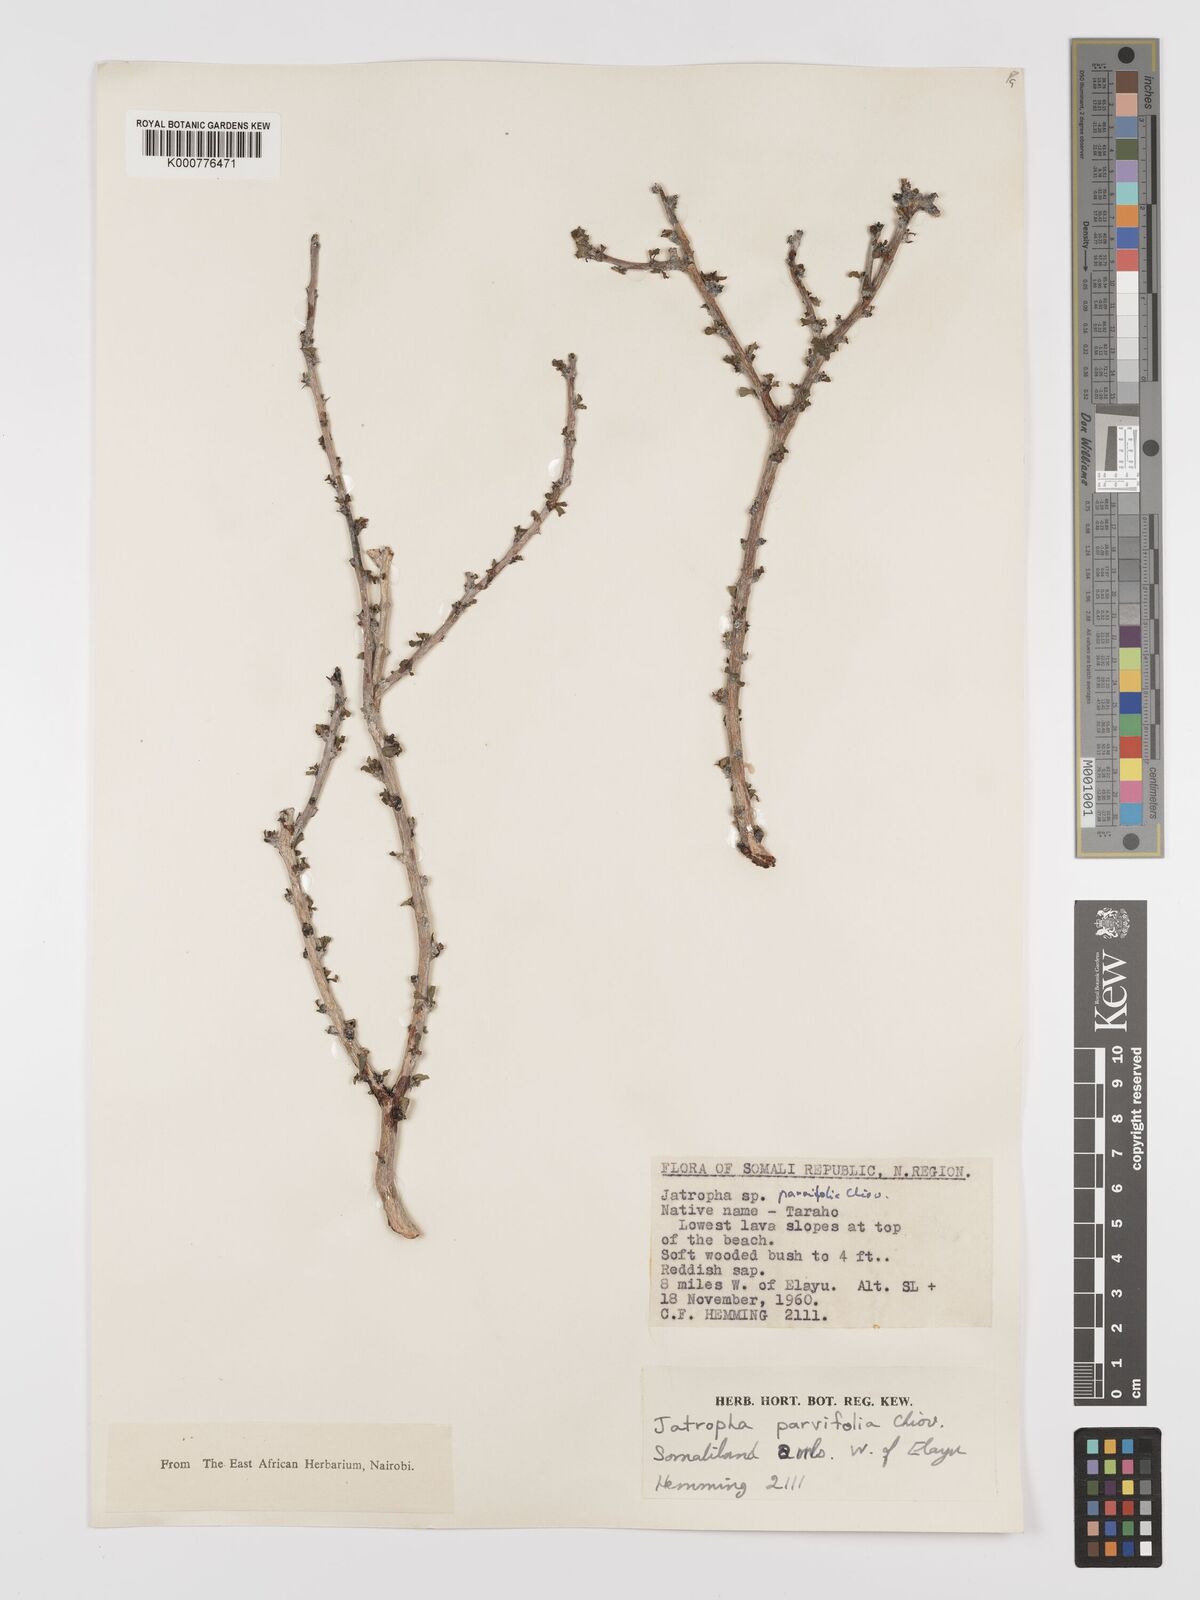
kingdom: Plantae
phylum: Tracheophyta
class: Magnoliopsida
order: Malpighiales
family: Euphorbiaceae
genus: Jatropha
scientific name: Jatropha rivae
